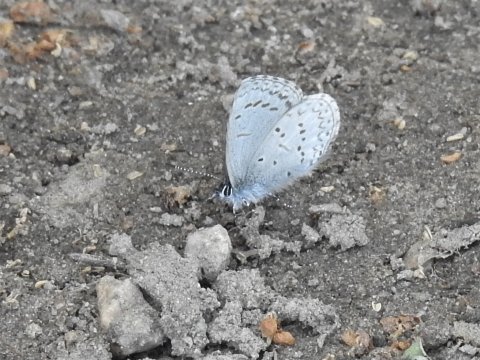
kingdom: Animalia
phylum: Arthropoda
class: Insecta
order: Lepidoptera
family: Lycaenidae
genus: Celastrina
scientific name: Celastrina
